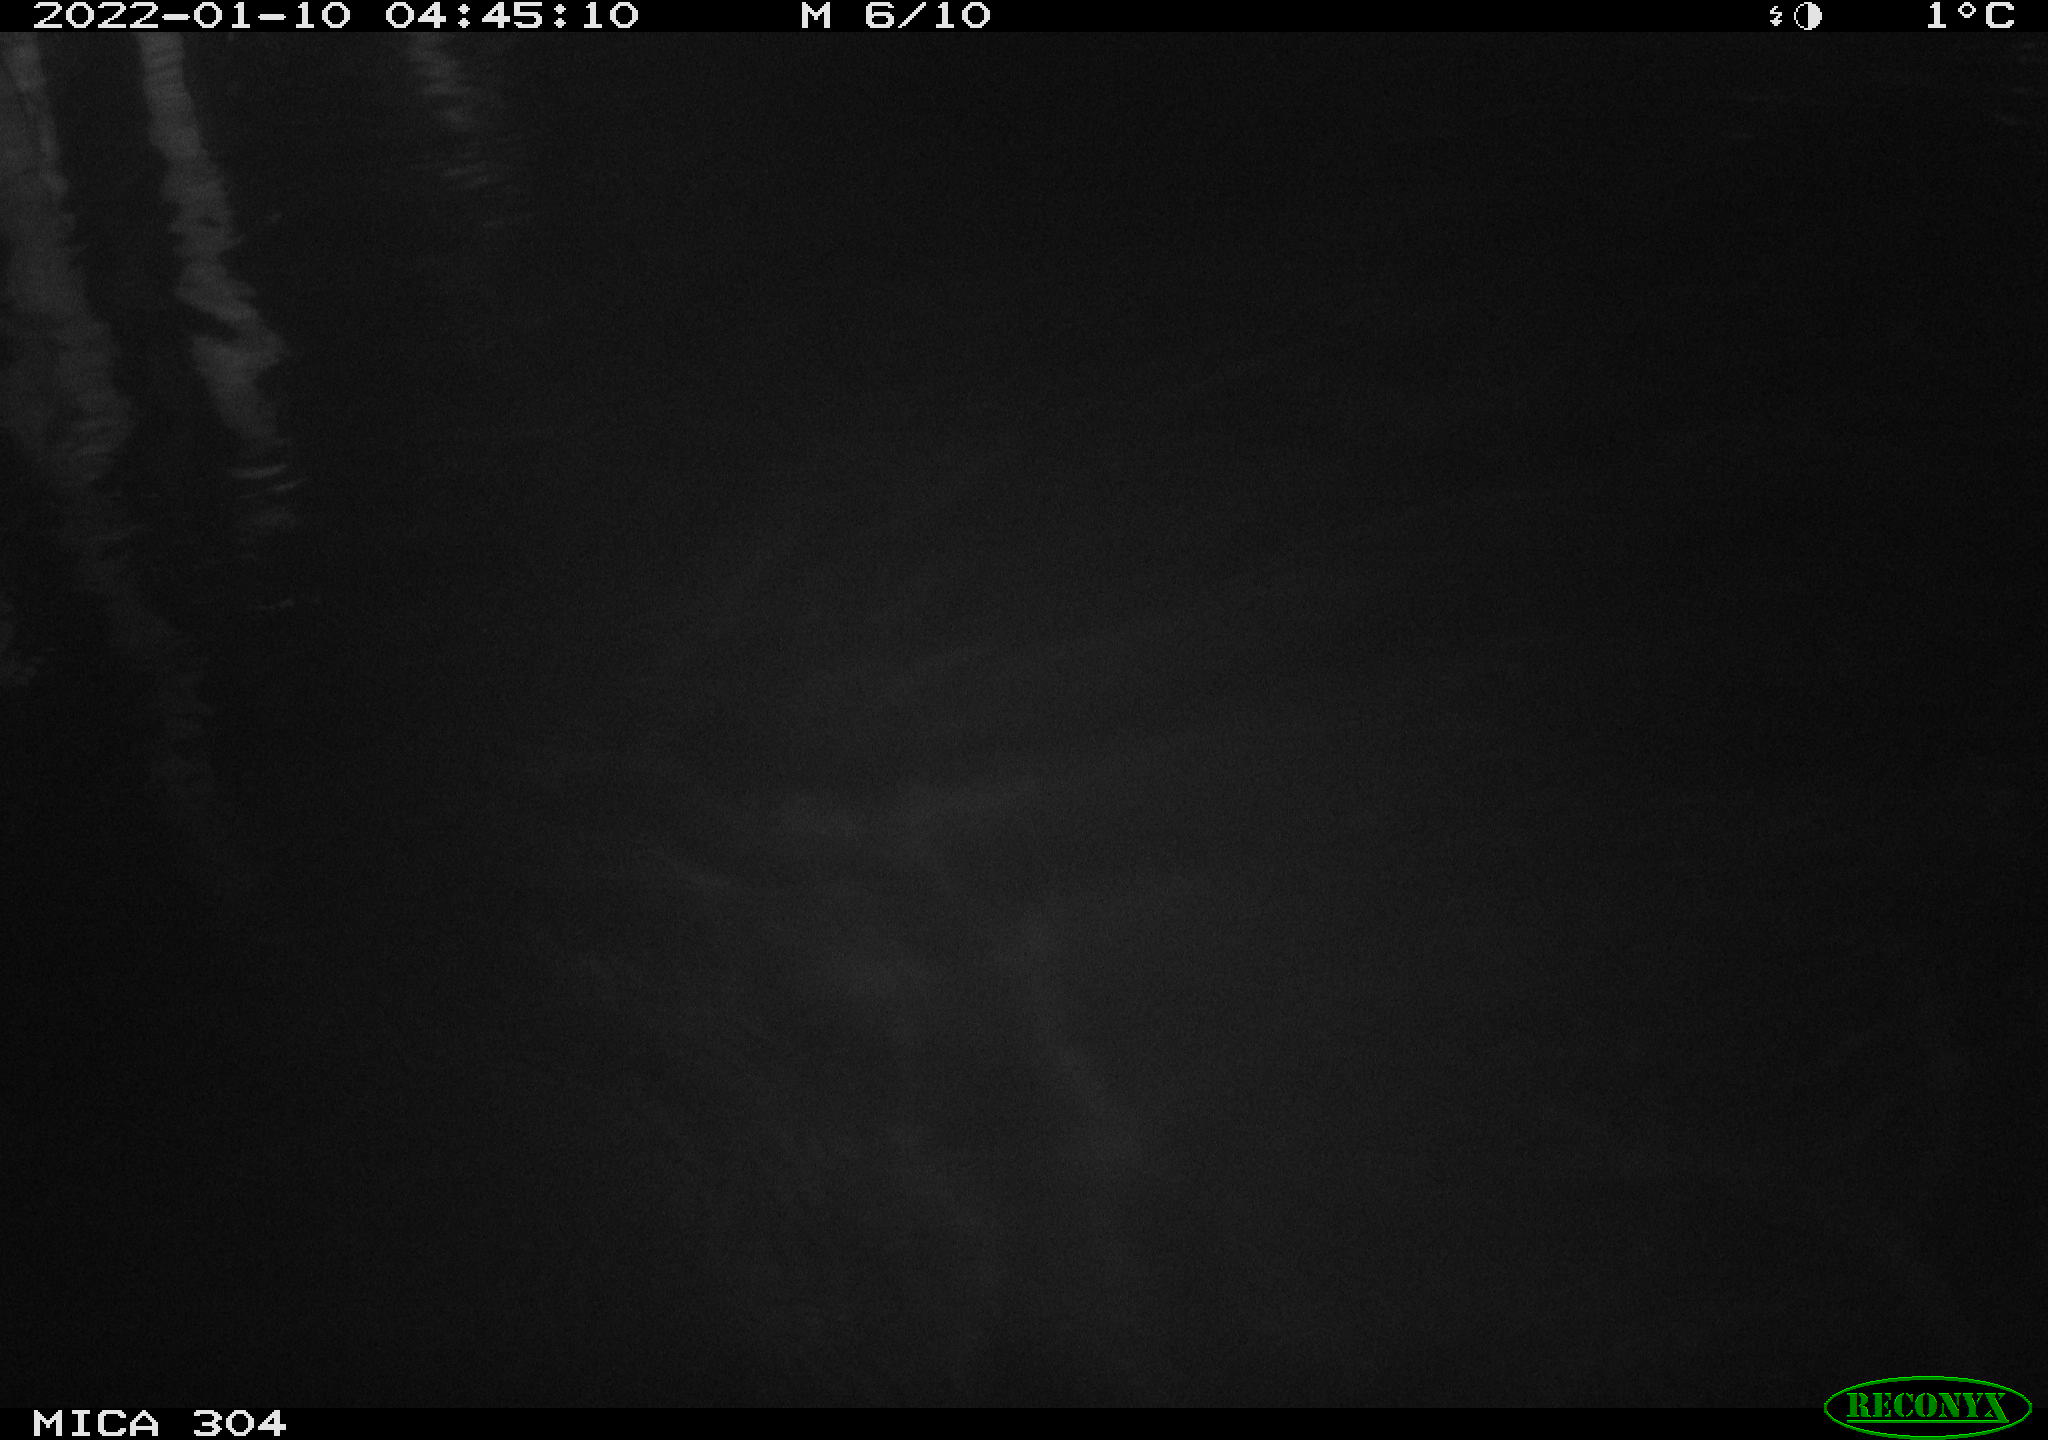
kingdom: Animalia
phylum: Chordata
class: Mammalia
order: Rodentia
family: Cricetidae
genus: Ondatra
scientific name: Ondatra zibethicus
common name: Muskrat
